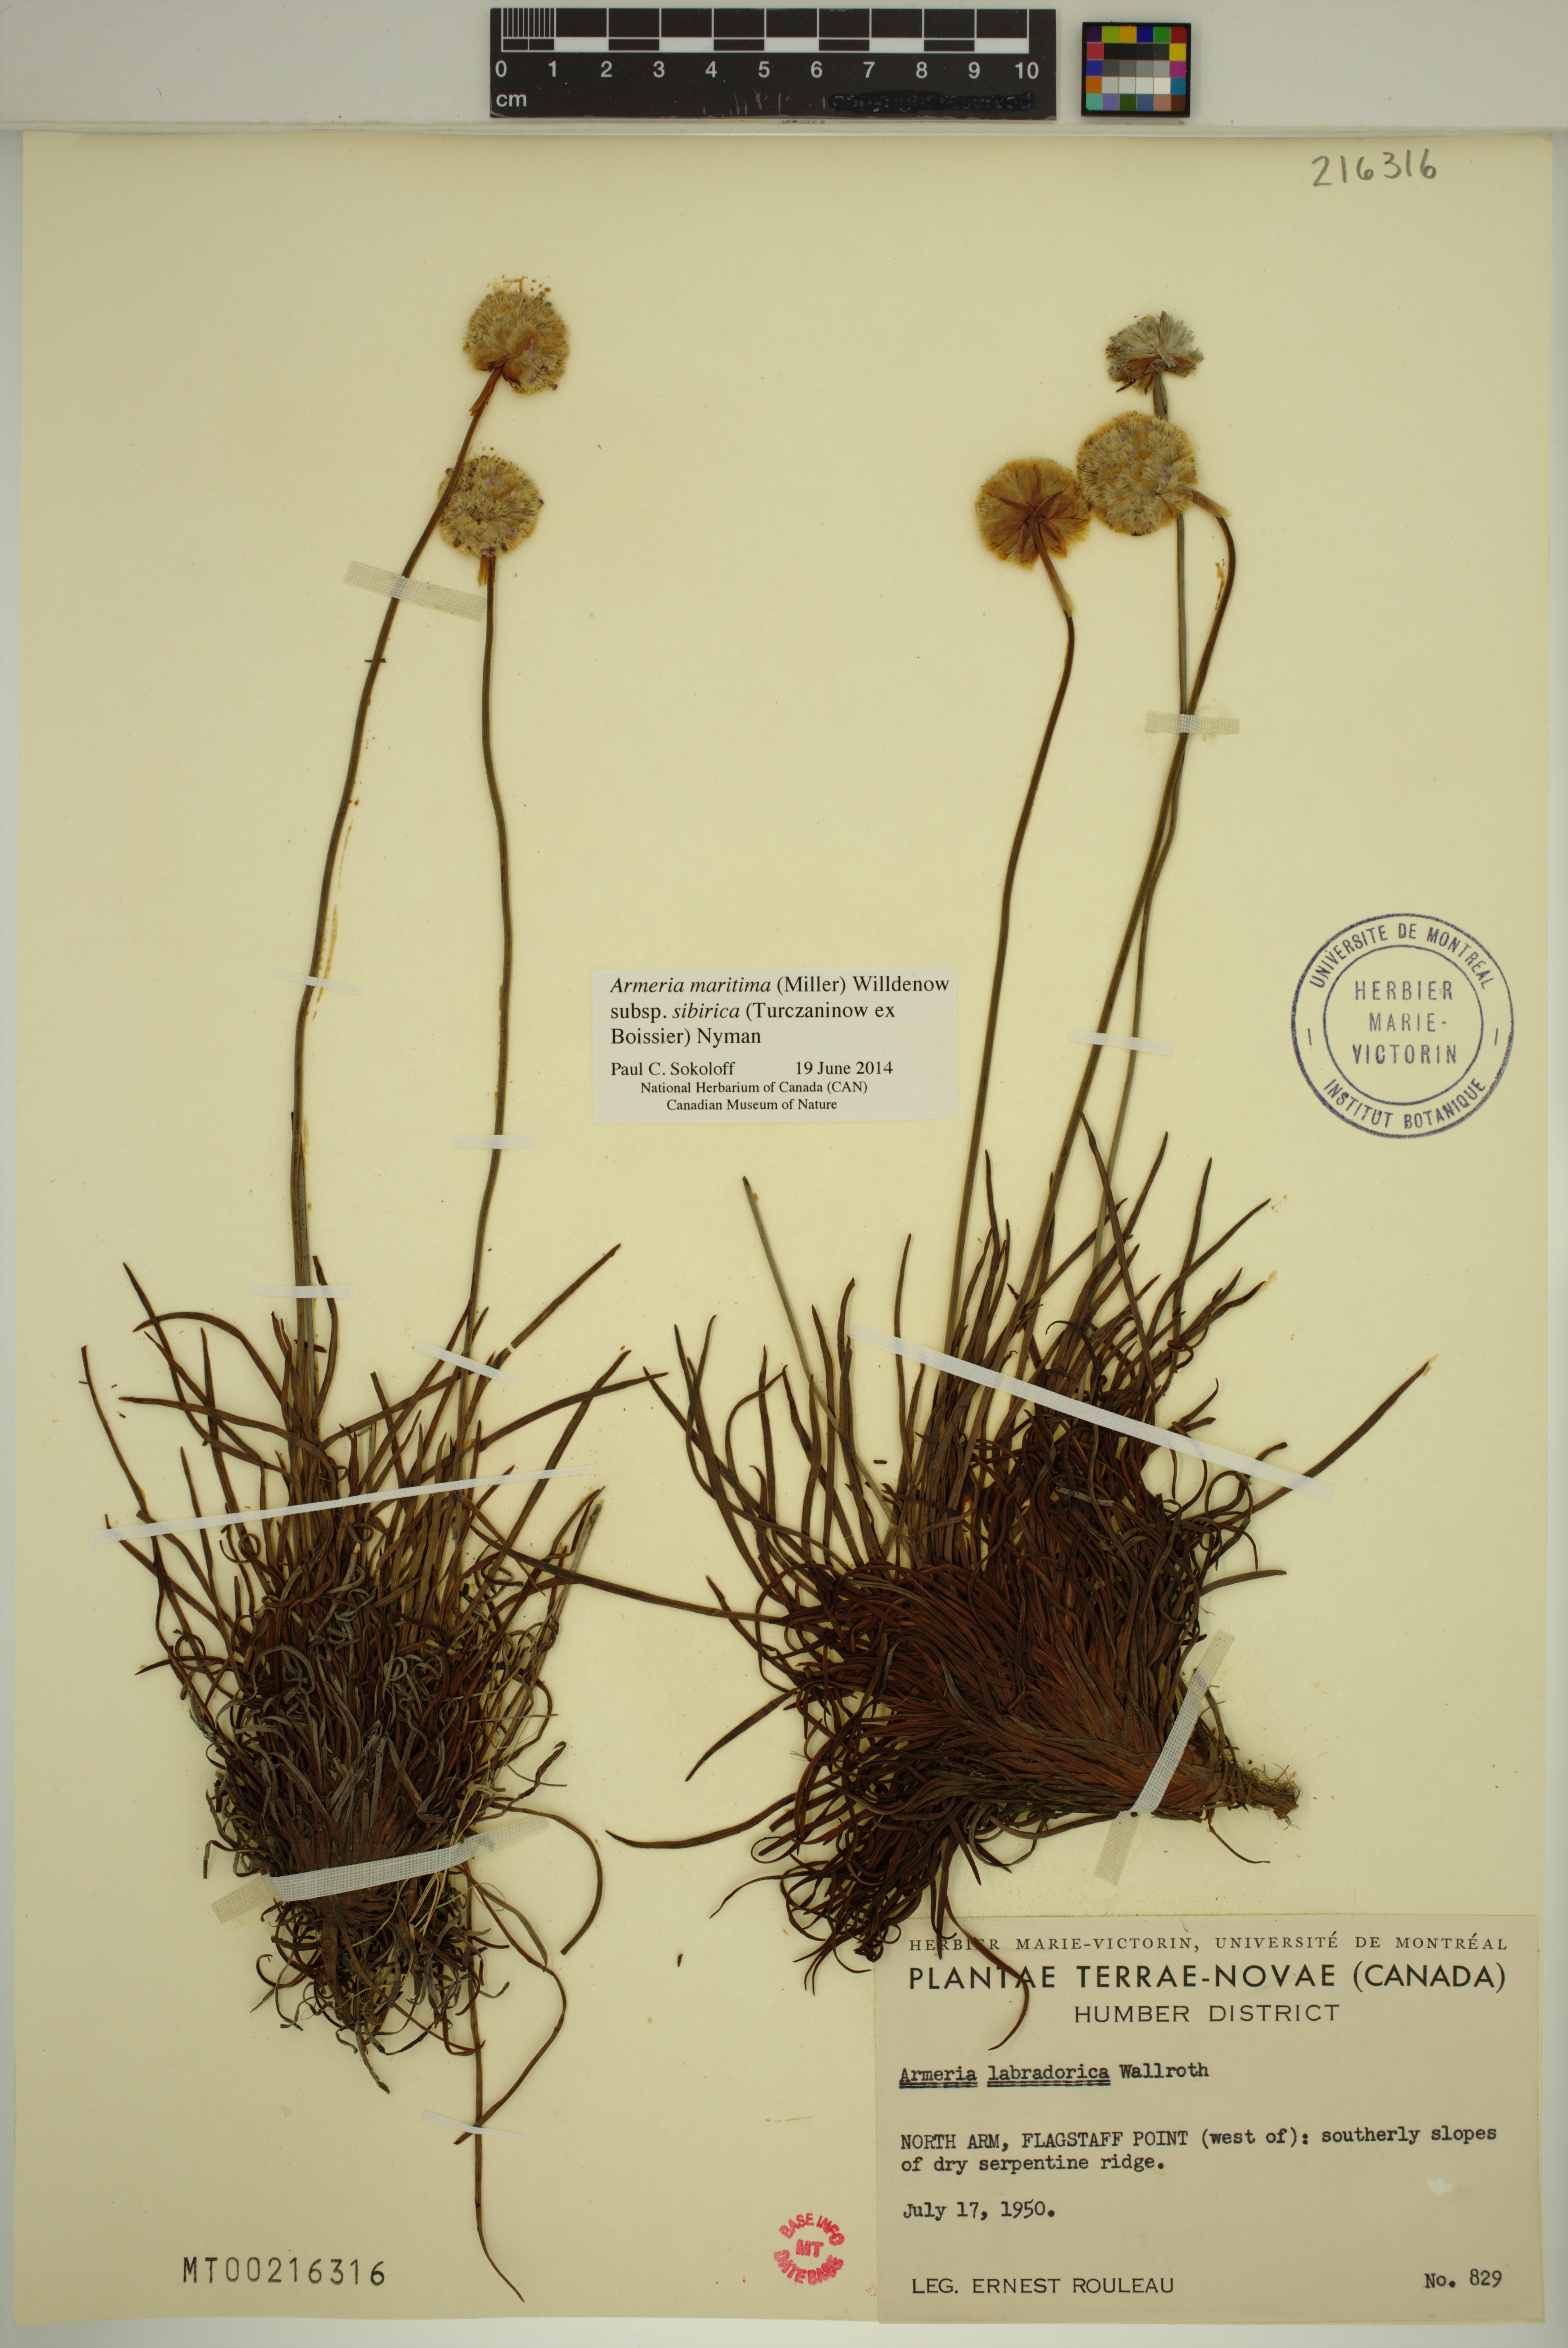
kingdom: Plantae
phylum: Tracheophyta
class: Magnoliopsida
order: Caryophyllales
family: Plumbaginaceae
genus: Armeria
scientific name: Armeria maritima
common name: Thrift
